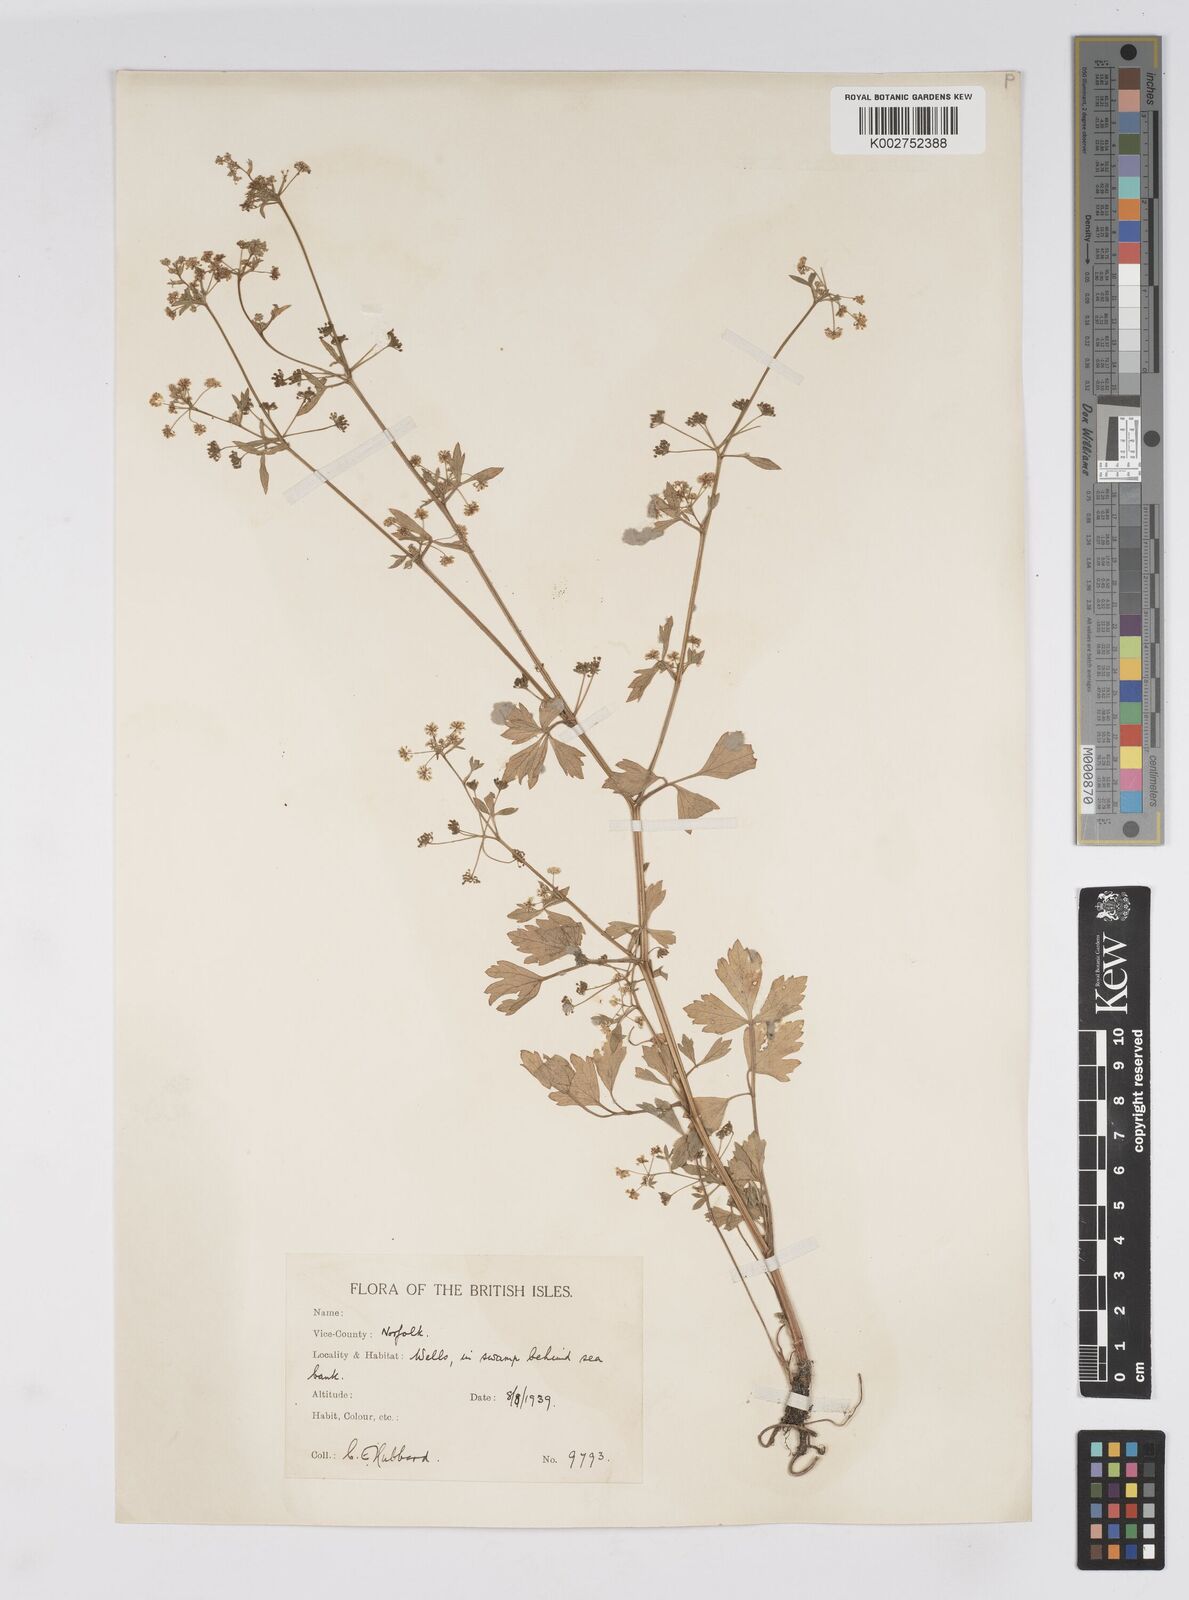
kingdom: Plantae
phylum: Tracheophyta
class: Magnoliopsida
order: Apiales
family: Apiaceae
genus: Apium
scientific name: Apium graveolens
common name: Wild celery
